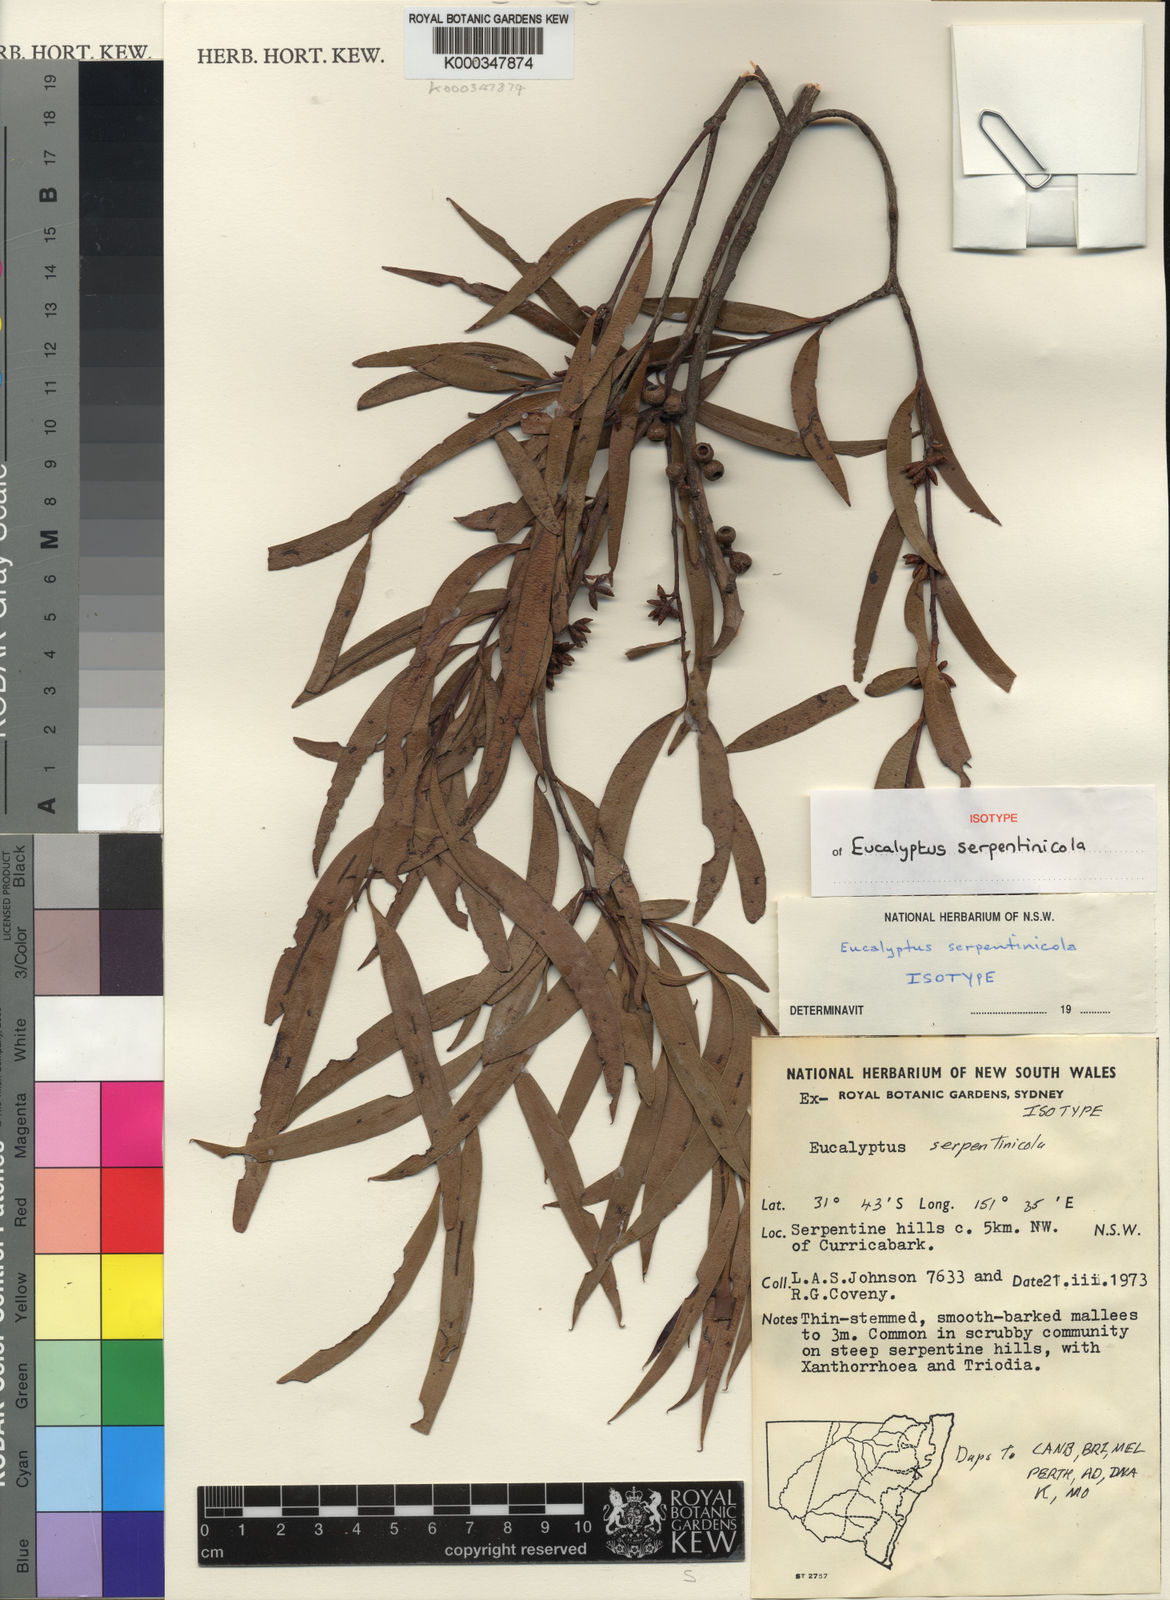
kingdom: Plantae
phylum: Tracheophyta
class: Magnoliopsida
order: Myrtales
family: Myrtaceae
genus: Eucalyptus
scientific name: Eucalyptus moorei
